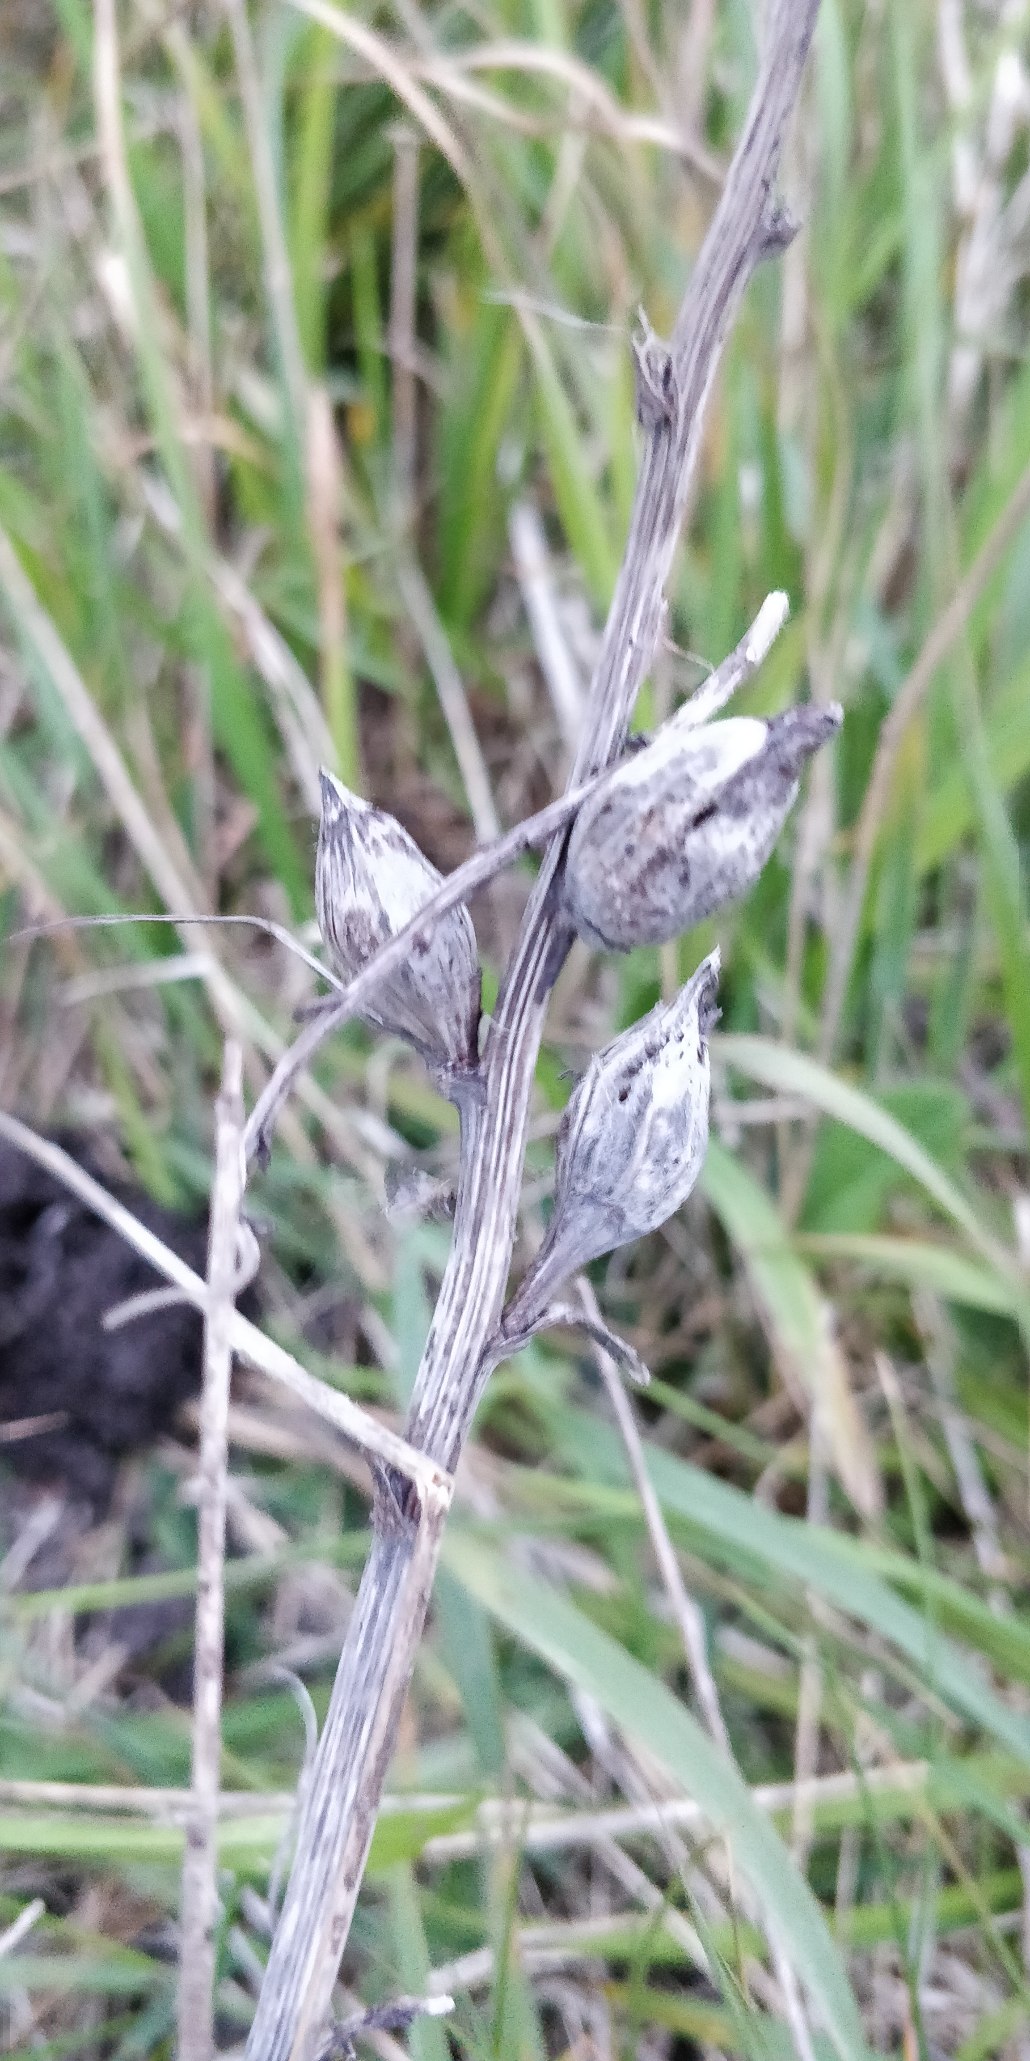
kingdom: Animalia
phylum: Arthropoda
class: Insecta
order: Diptera
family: Tephritidae
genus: Urophora
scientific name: Urophora cardui
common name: Tidselbåndflue
